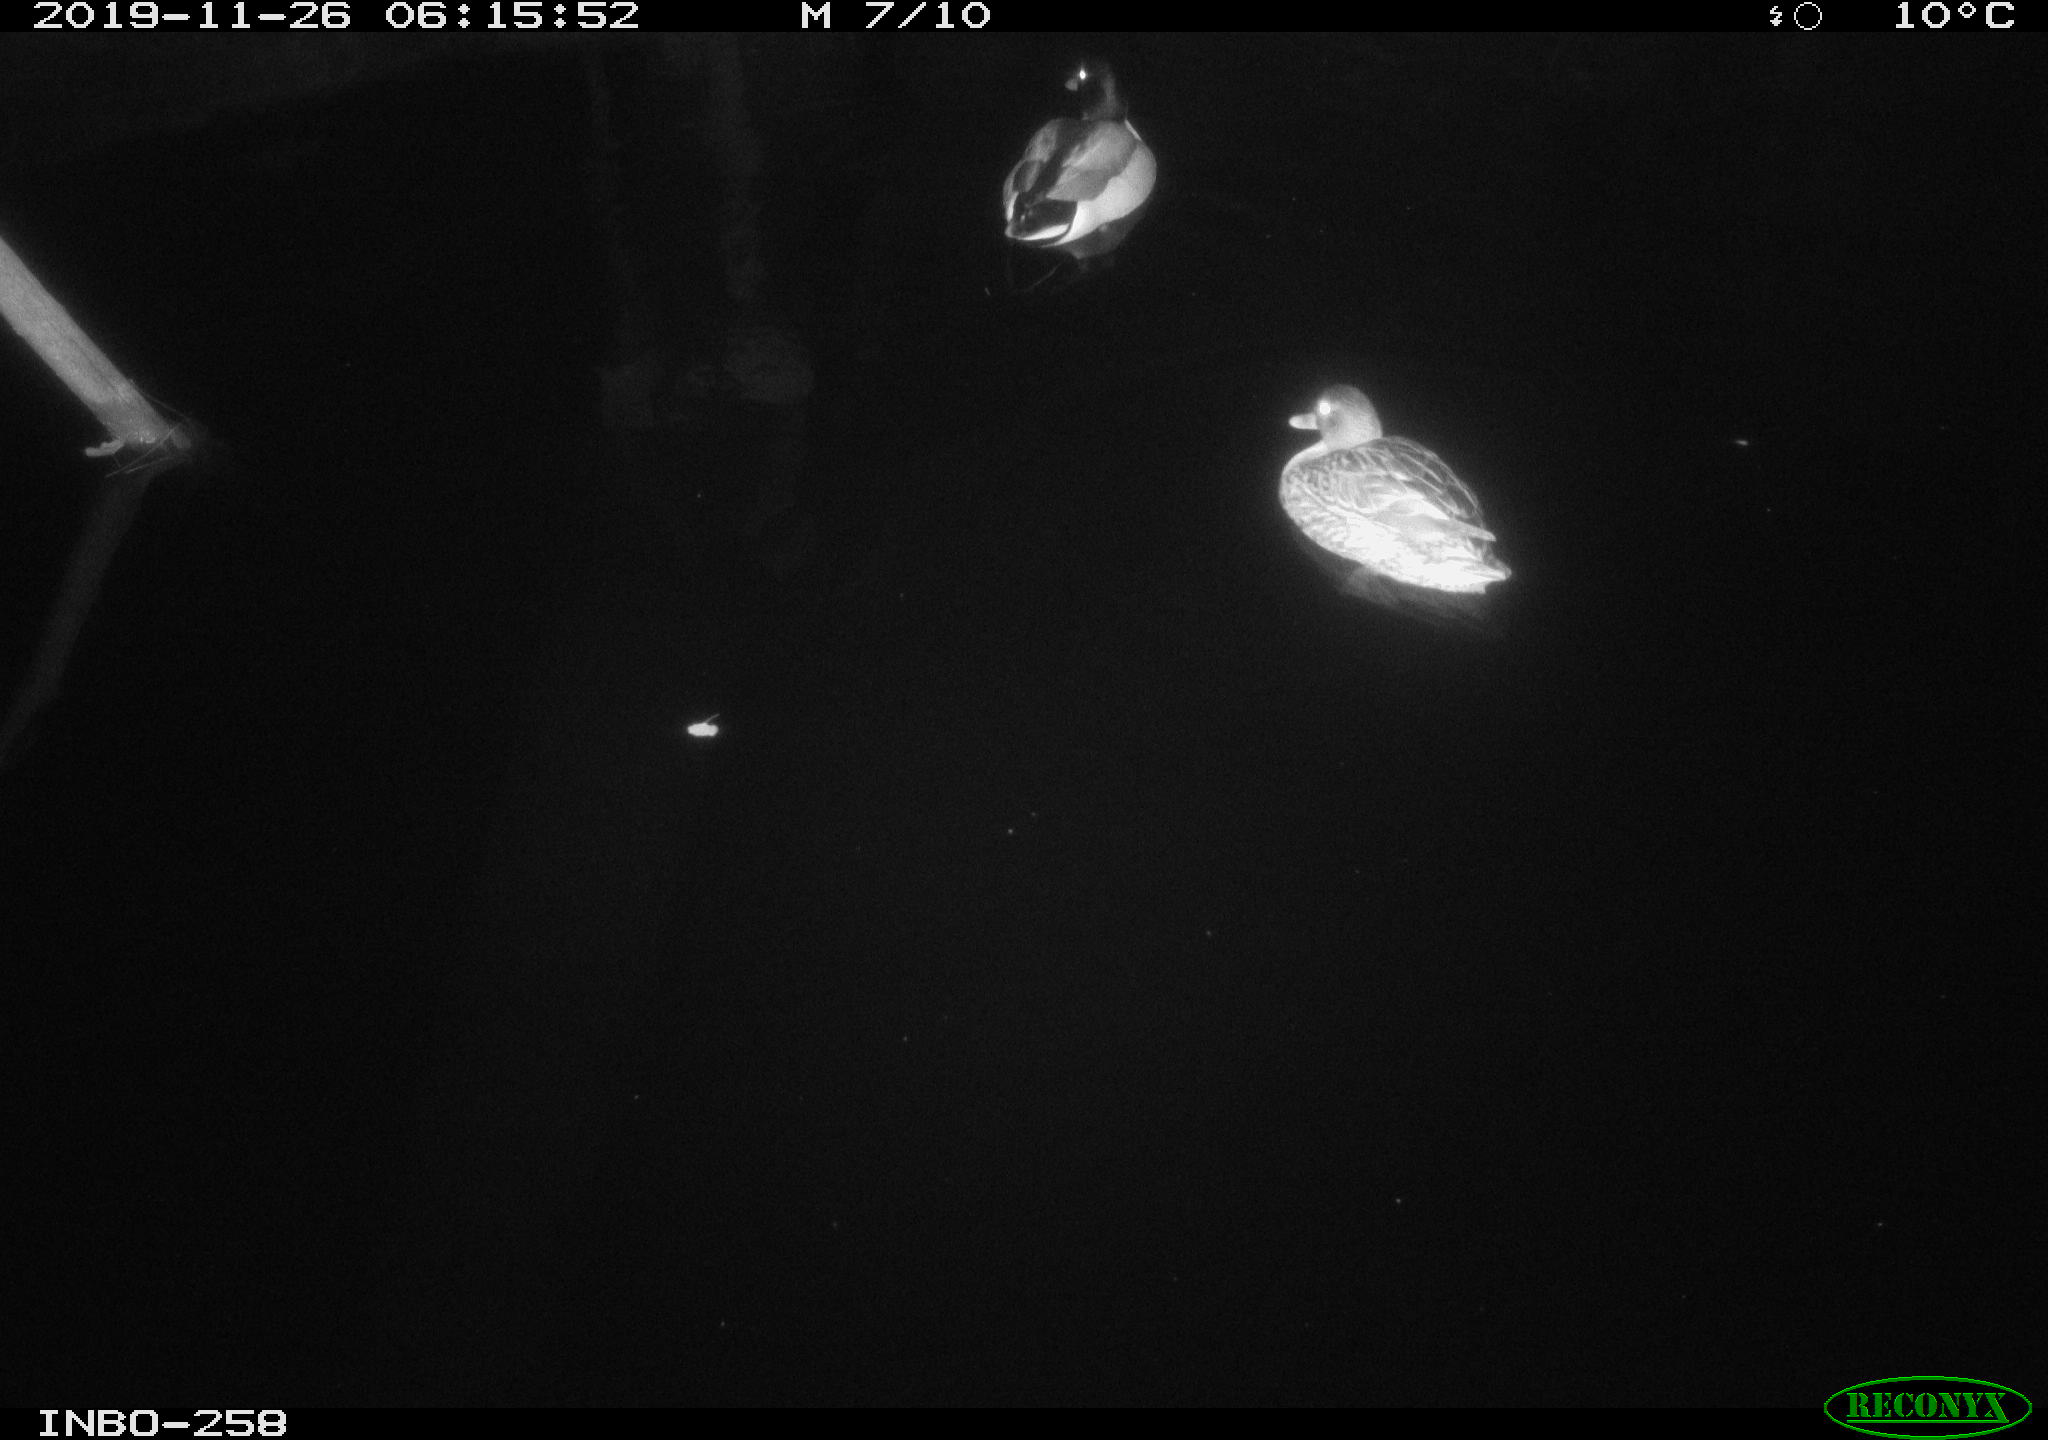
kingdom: Animalia
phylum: Chordata
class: Aves
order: Anseriformes
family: Anatidae
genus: Anas
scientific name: Anas platyrhynchos
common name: Mallard
